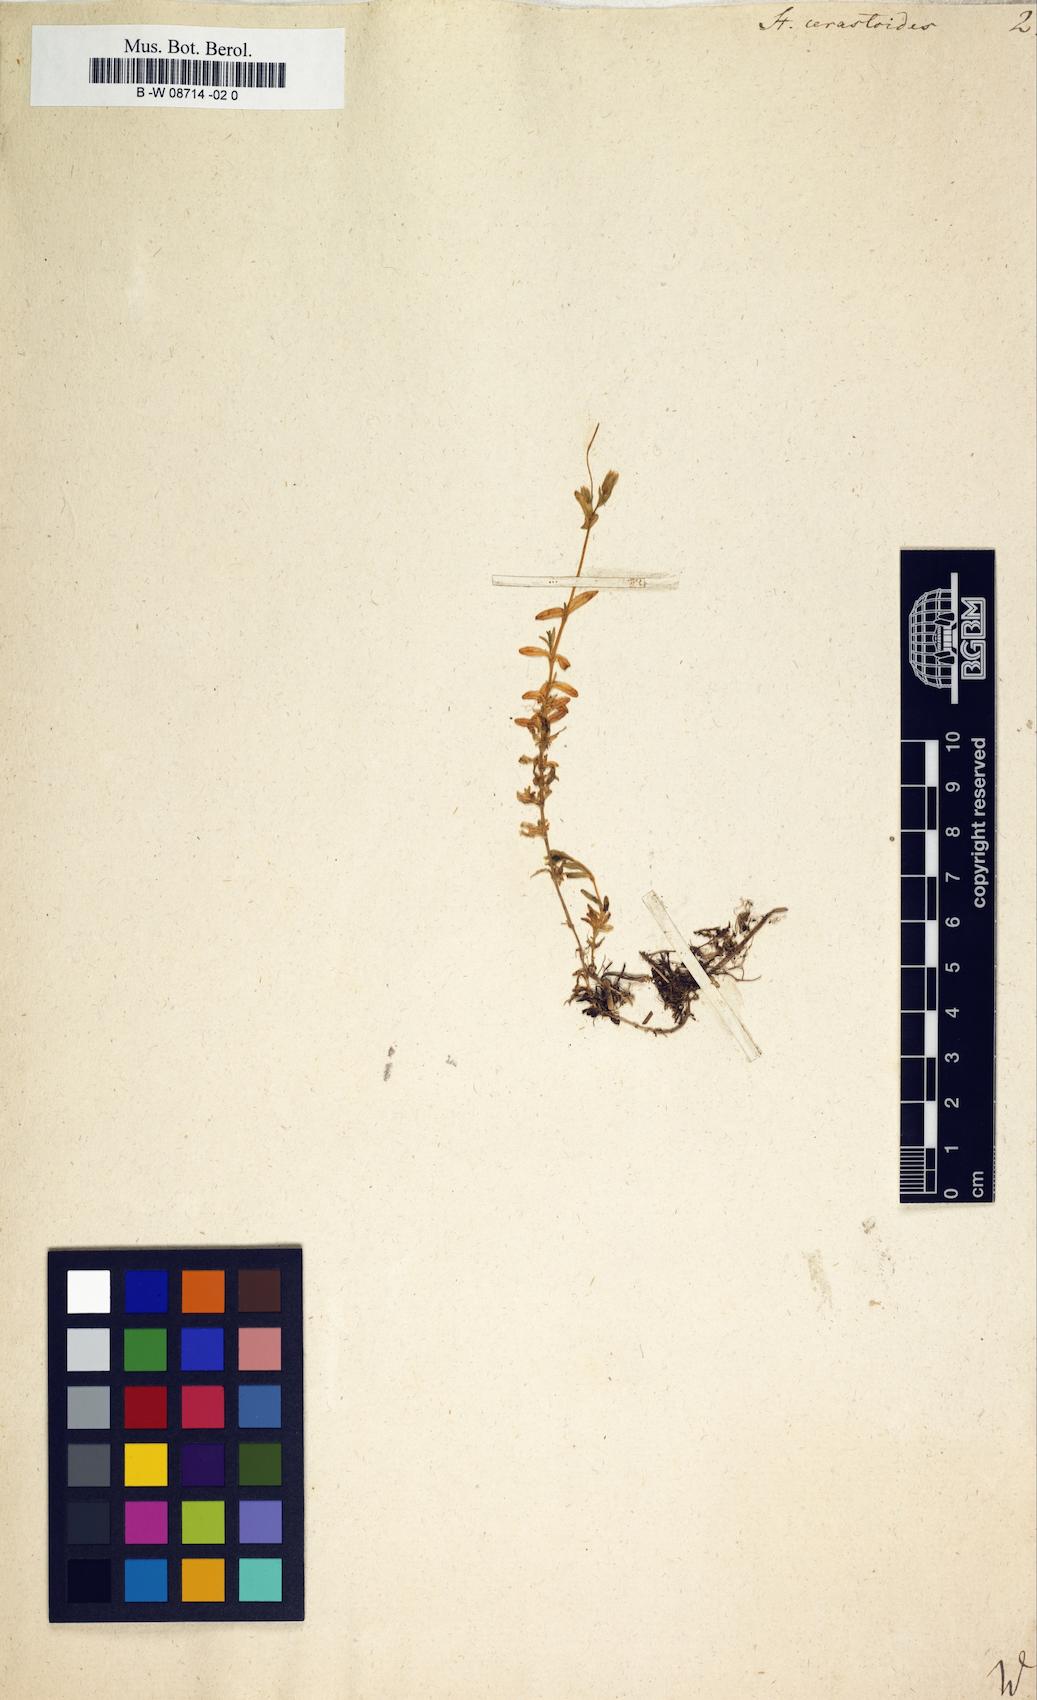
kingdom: Plantae
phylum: Tracheophyta
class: Magnoliopsida
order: Caryophyllales
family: Caryophyllaceae
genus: Stellaria
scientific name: Stellaria cerastoides
